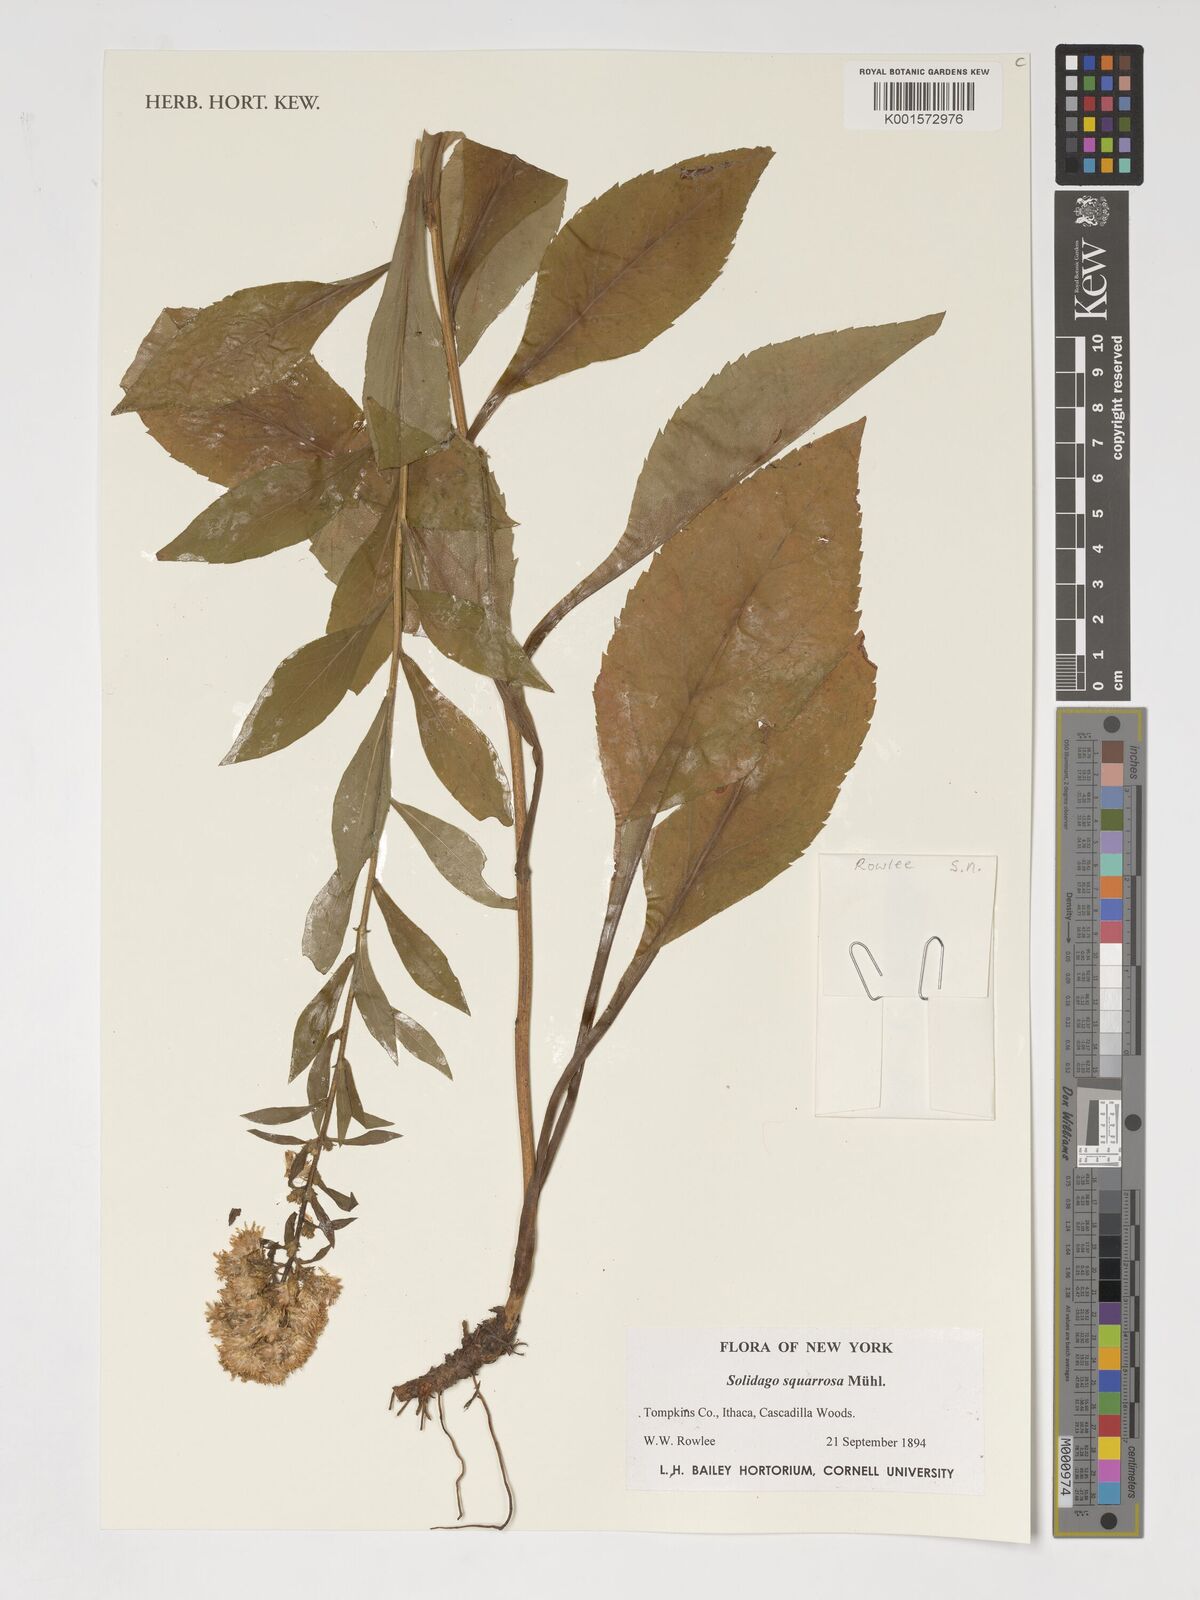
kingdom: Plantae
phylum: Tracheophyta
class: Magnoliopsida
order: Asterales
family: Asteraceae
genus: Solidago
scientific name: Solidago squarrosa
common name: Stout goldenrod
